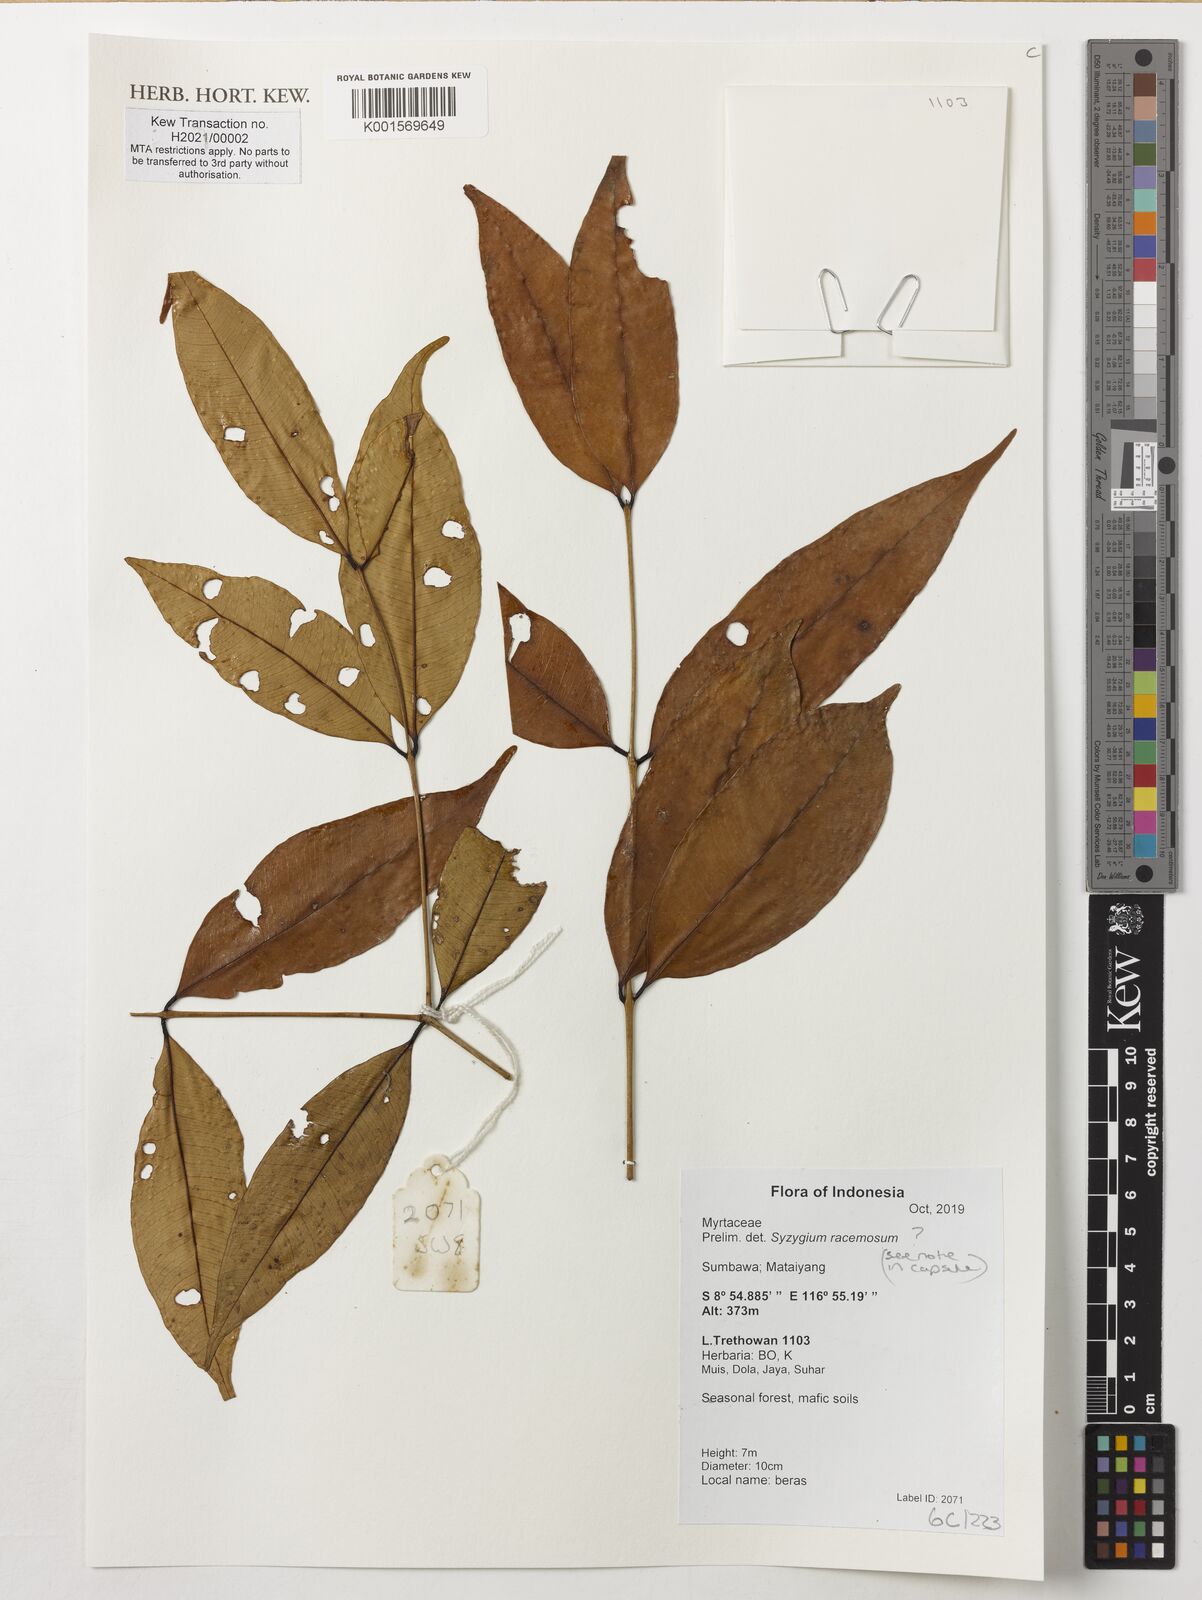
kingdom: Plantae
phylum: Tracheophyta
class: Magnoliopsida
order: Myrtales
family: Myrtaceae
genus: Syzygium
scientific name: Syzygium racemosum
